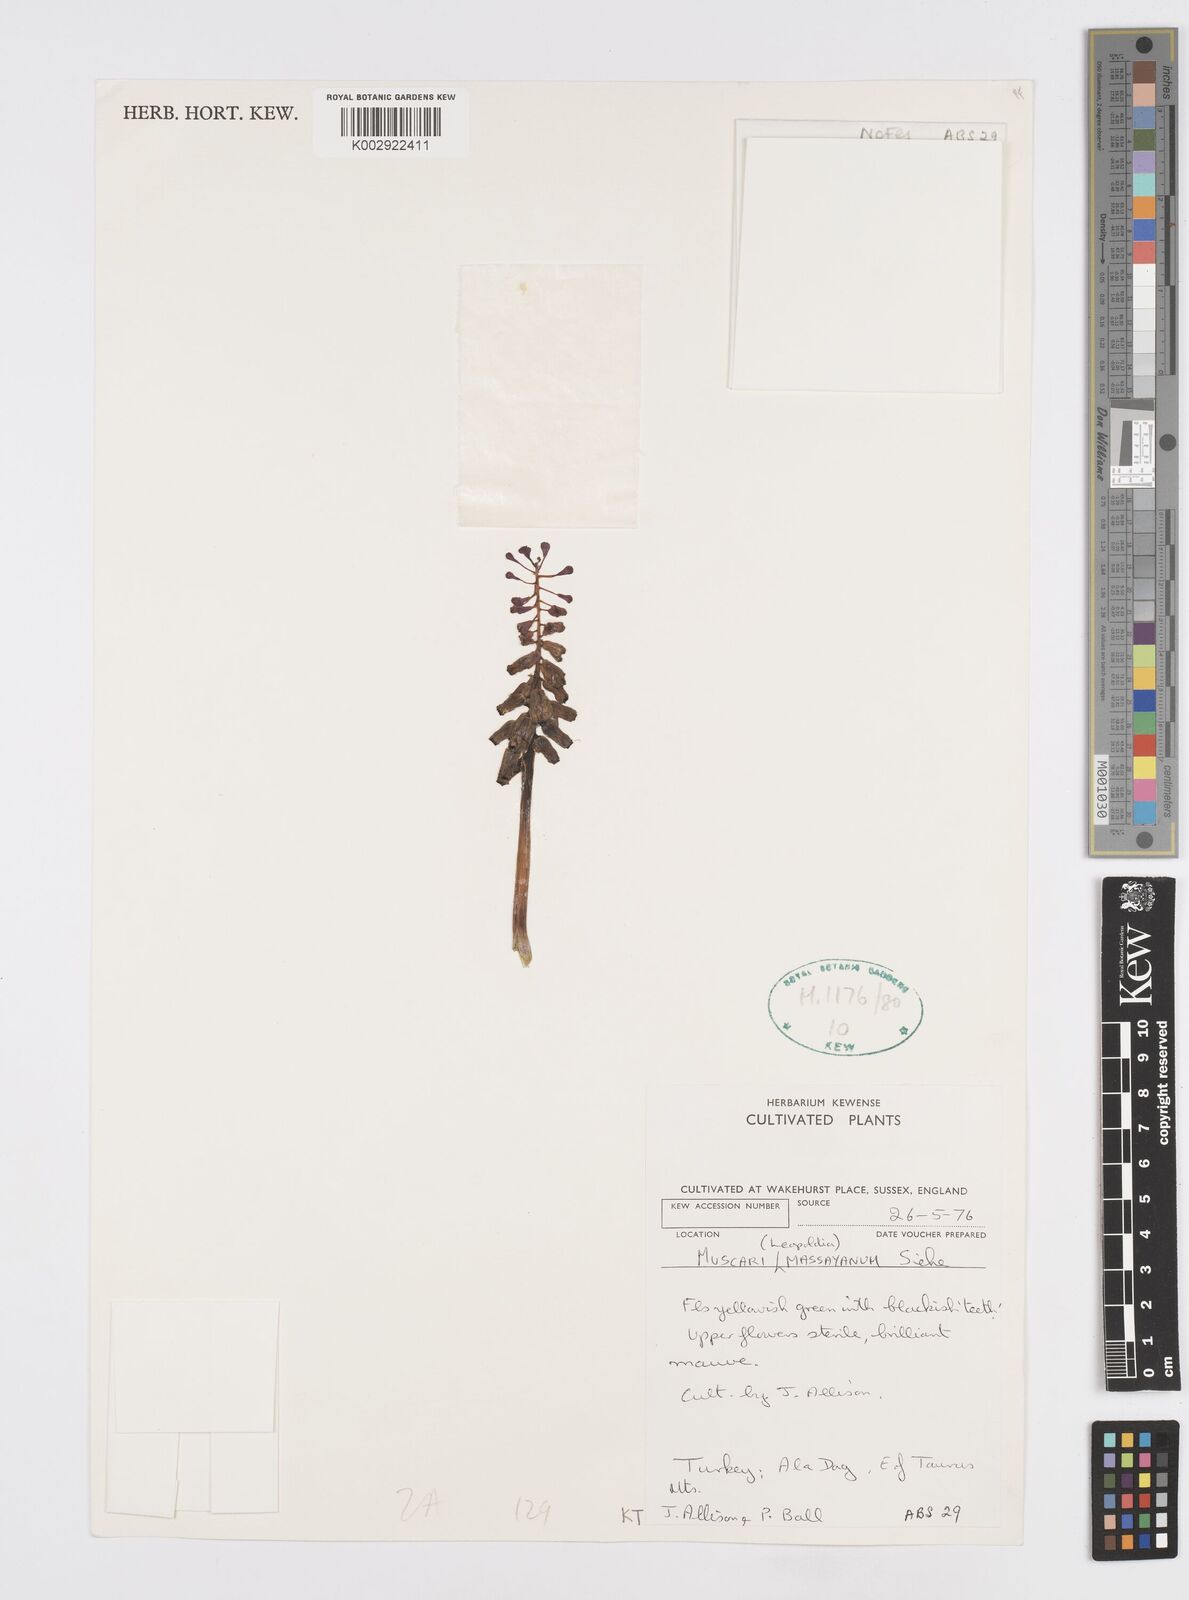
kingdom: Animalia
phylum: Mollusca
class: Cephalopoda
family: Neocomitidae
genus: Leopoldia
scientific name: Leopoldia
